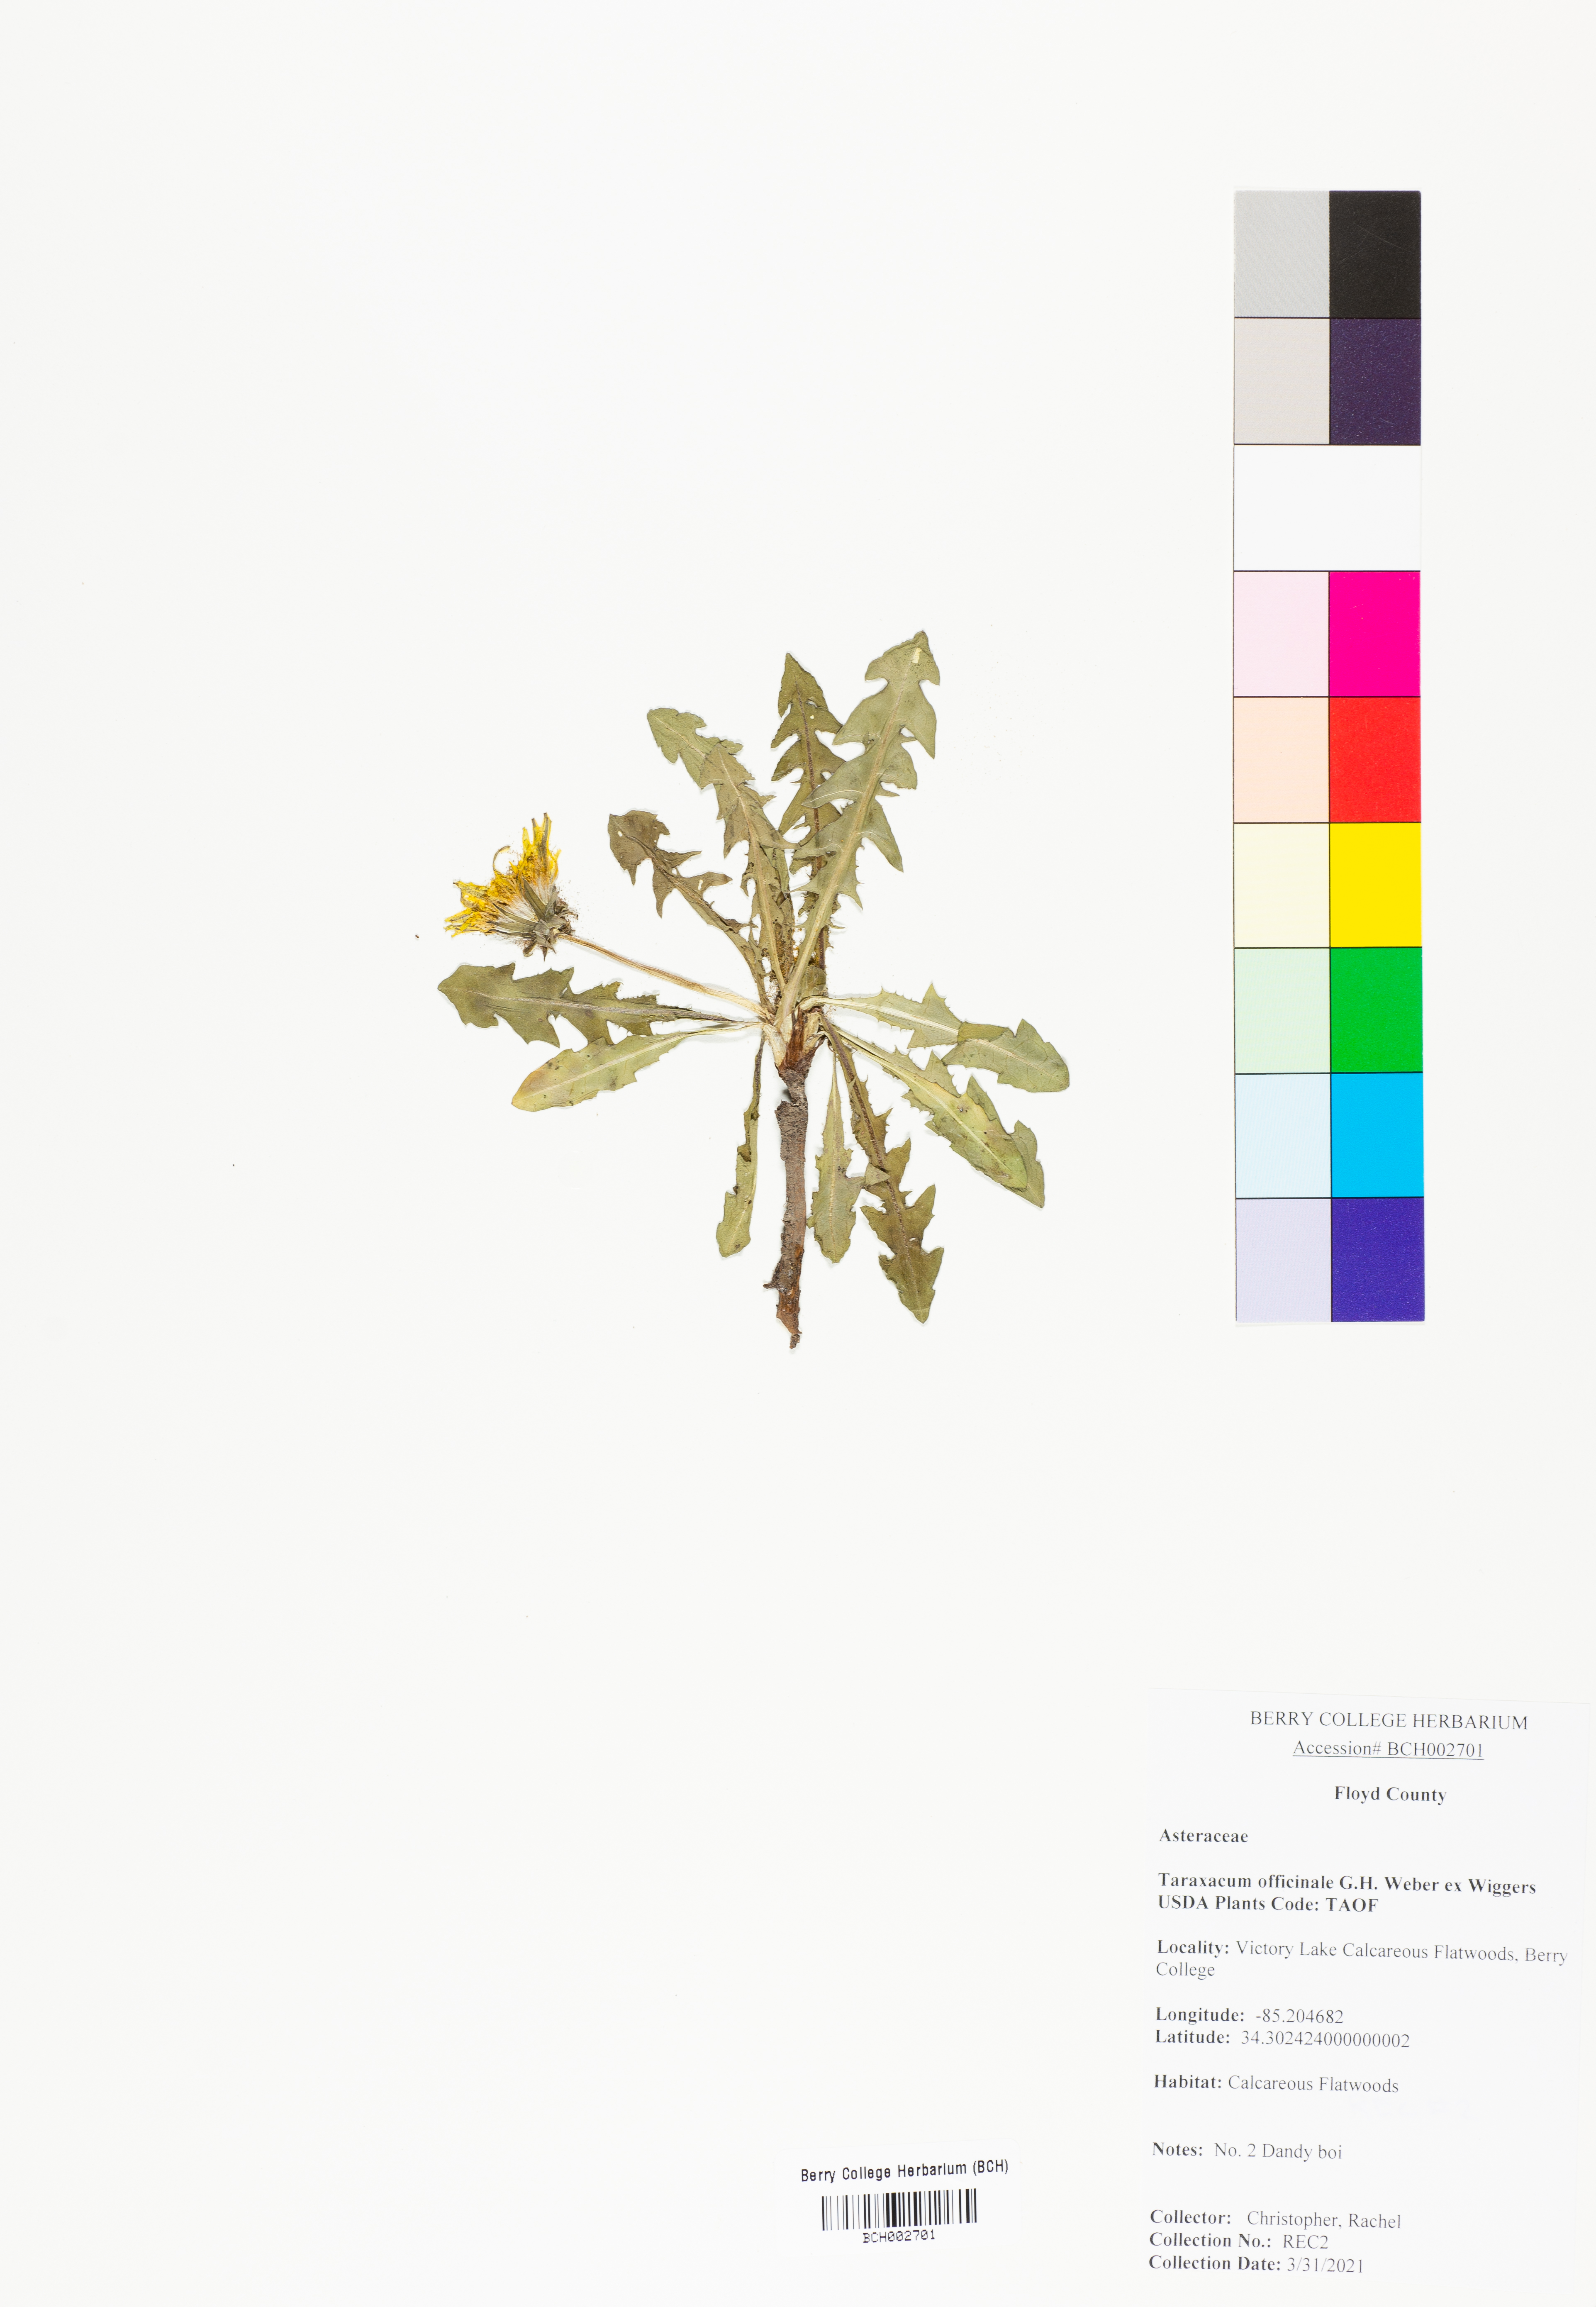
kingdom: Plantae
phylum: Tracheophyta
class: Magnoliopsida
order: Asterales
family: Asteraceae
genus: Taraxacum
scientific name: Taraxacum officinale
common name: Common dandelion
